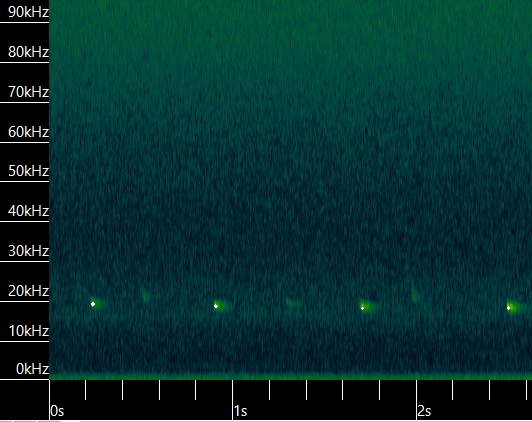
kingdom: Animalia
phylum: Chordata
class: Mammalia
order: Chiroptera
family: Vespertilionidae
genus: Nyctalus
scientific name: Nyctalus noctula
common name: Brunflagermus
